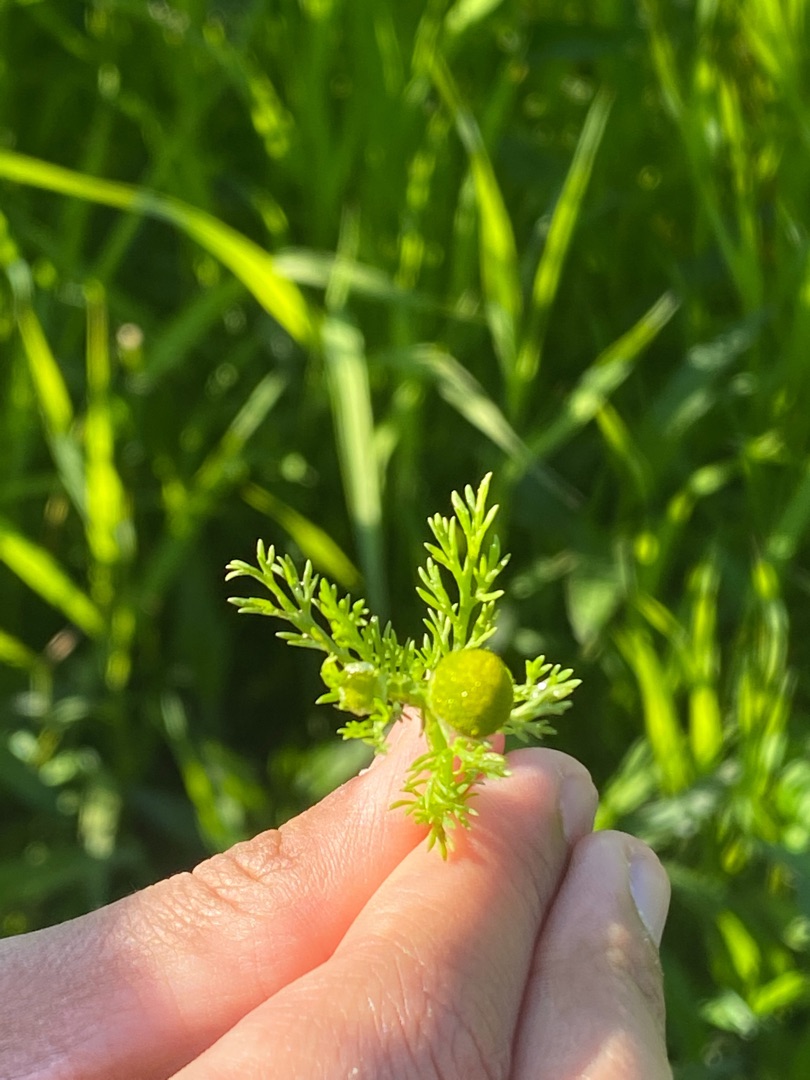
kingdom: Plantae
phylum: Tracheophyta
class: Magnoliopsida
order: Asterales
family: Asteraceae
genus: Matricaria
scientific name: Matricaria discoidea
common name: Skive-kamille
